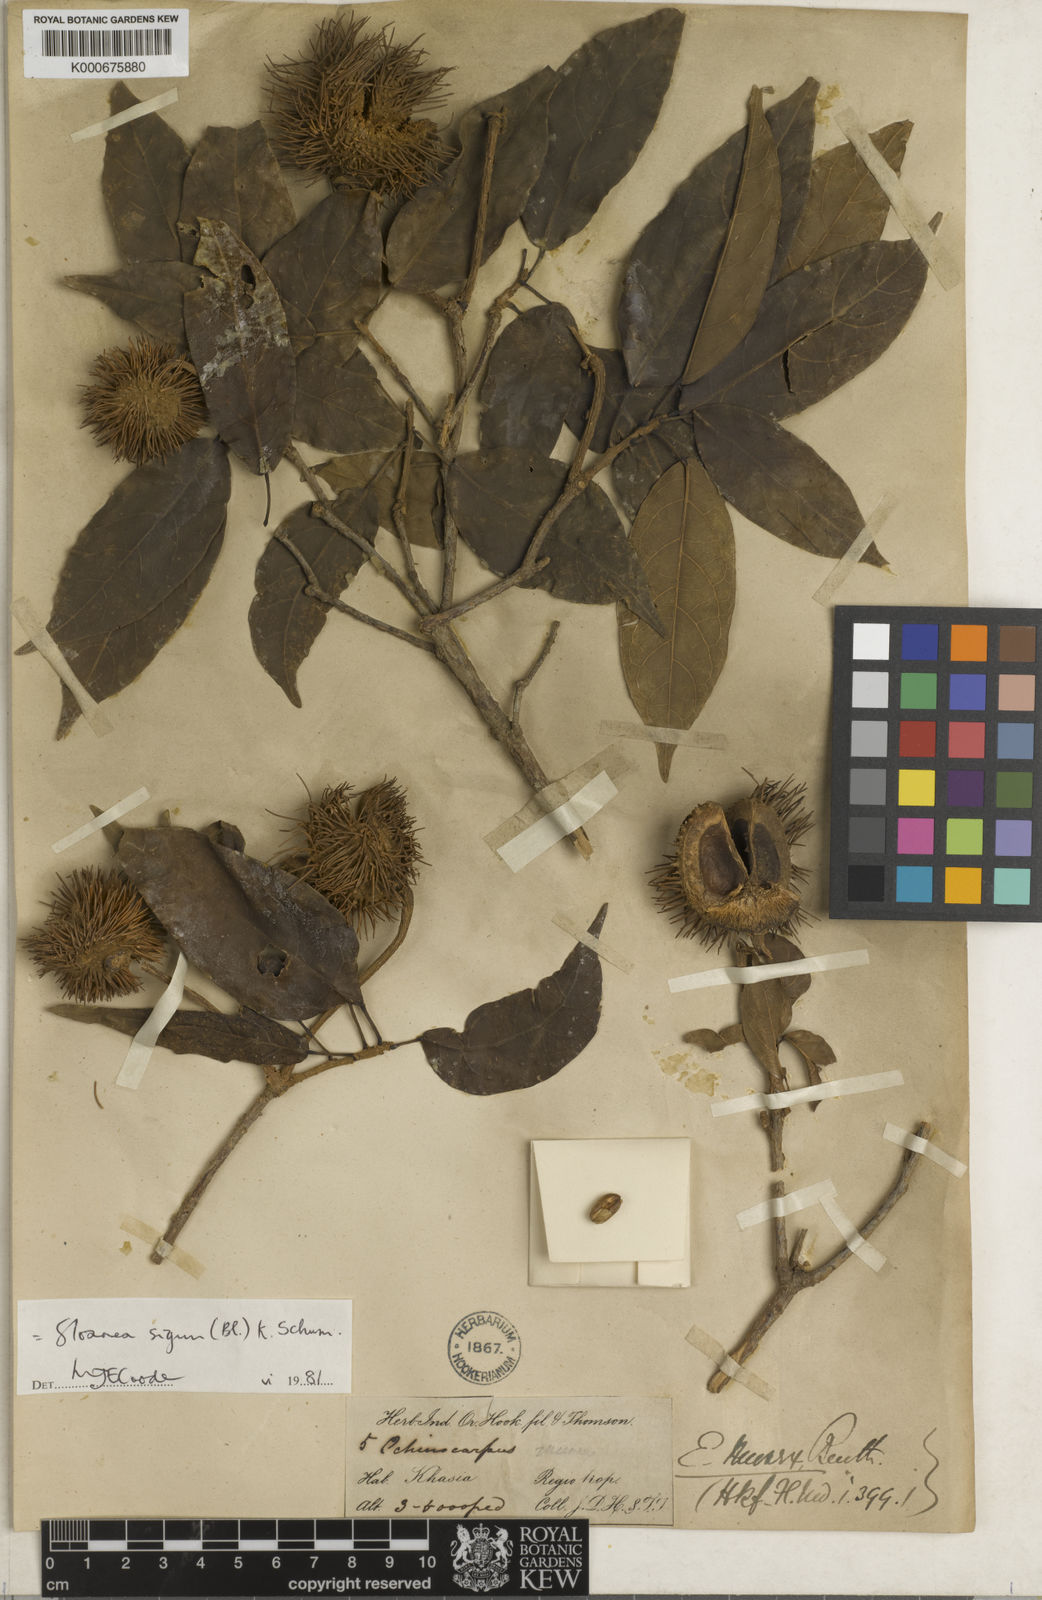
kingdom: Plantae
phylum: Tracheophyta
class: Magnoliopsida
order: Oxalidales
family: Elaeocarpaceae
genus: Sloanea
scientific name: Sloanea
